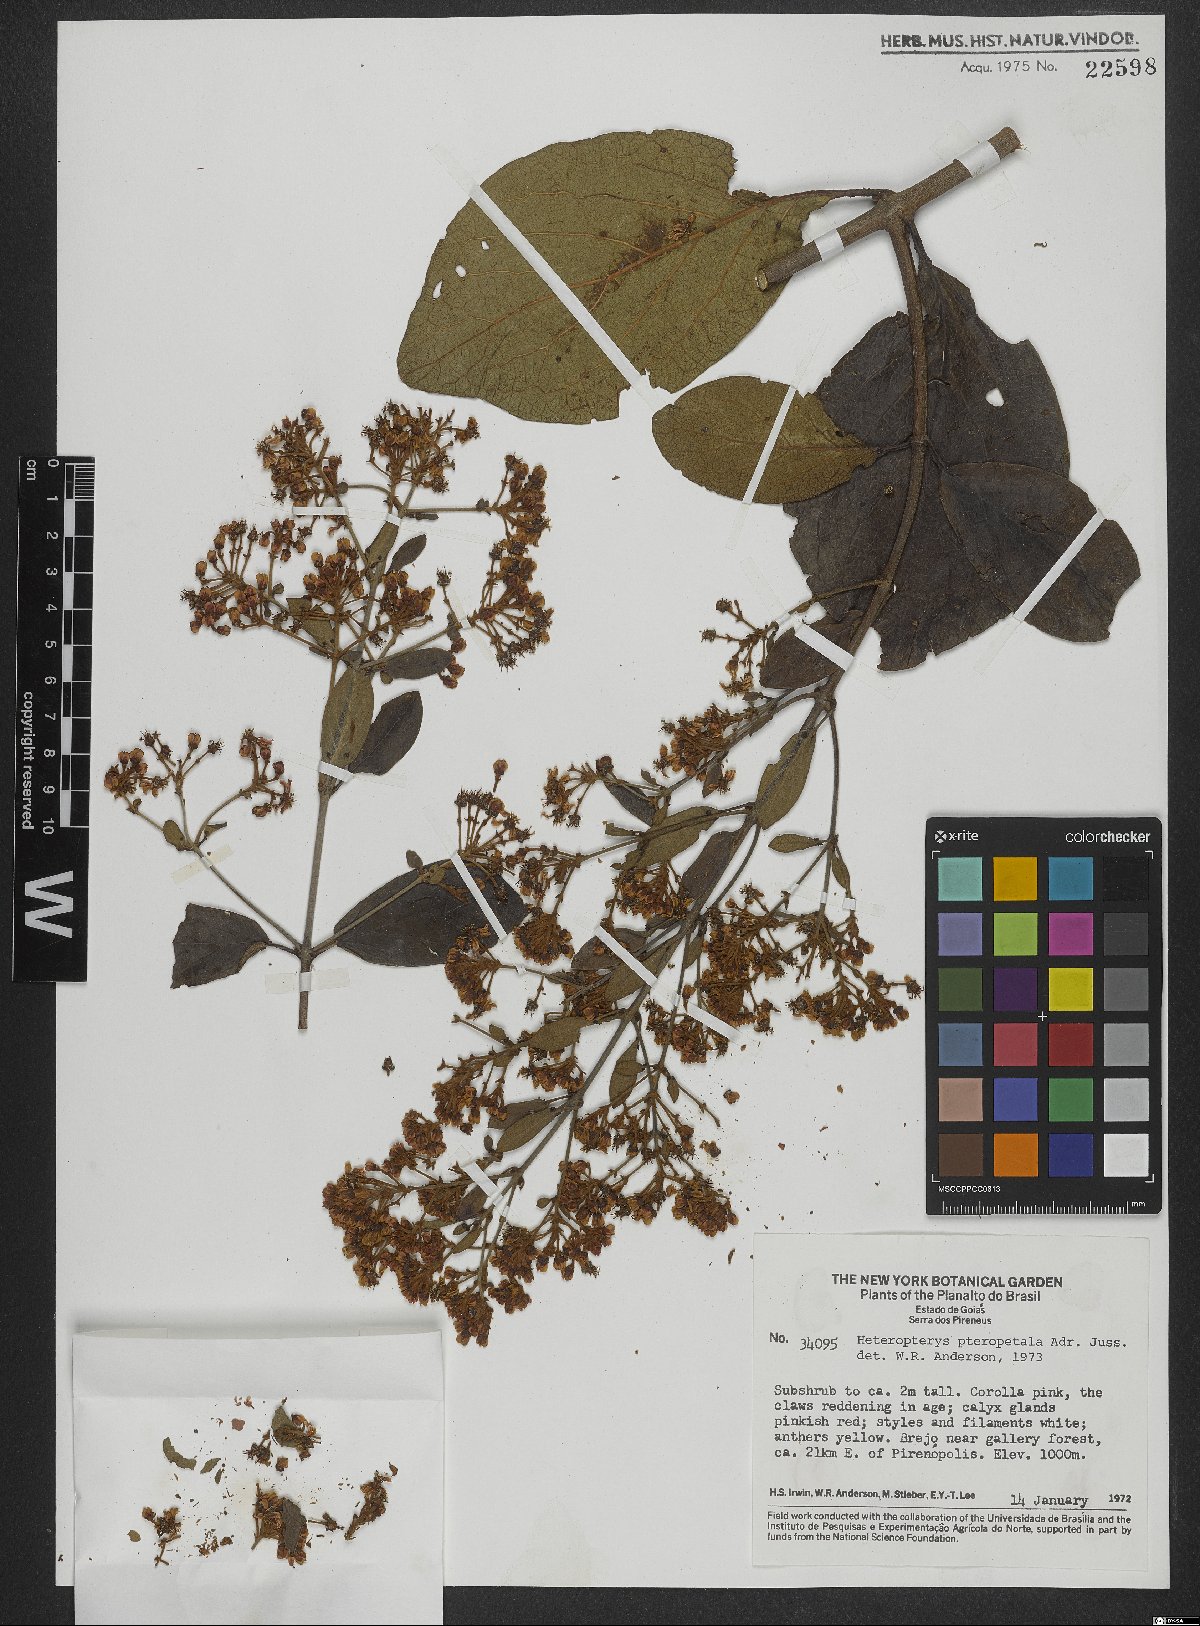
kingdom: Plantae
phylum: Tracheophyta
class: Magnoliopsida
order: Malpighiales
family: Malpighiaceae
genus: Heteropterys
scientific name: Heteropterys pteropetala
